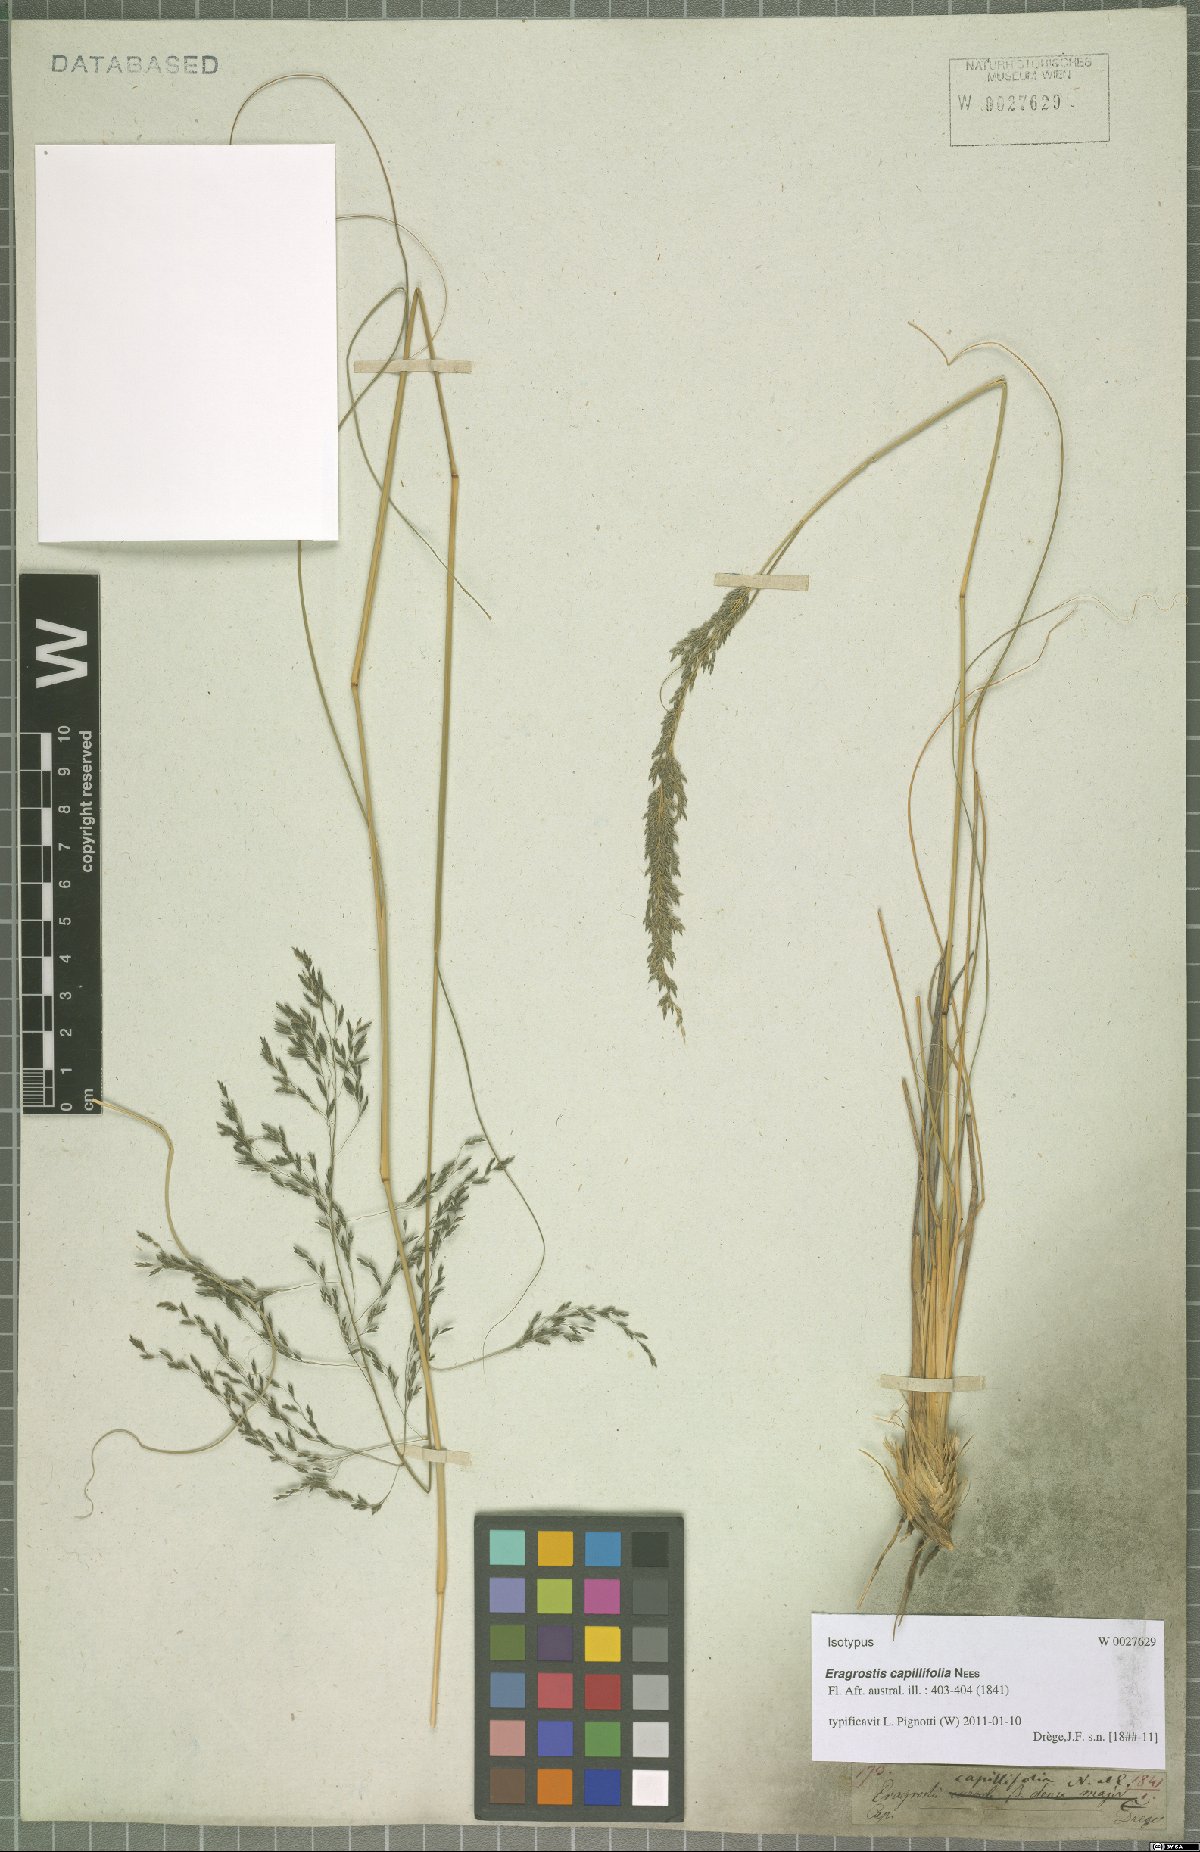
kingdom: Plantae
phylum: Tracheophyta
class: Liliopsida
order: Poales
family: Poaceae
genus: Eragrostis
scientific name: Eragrostis curvula
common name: African love-grass
